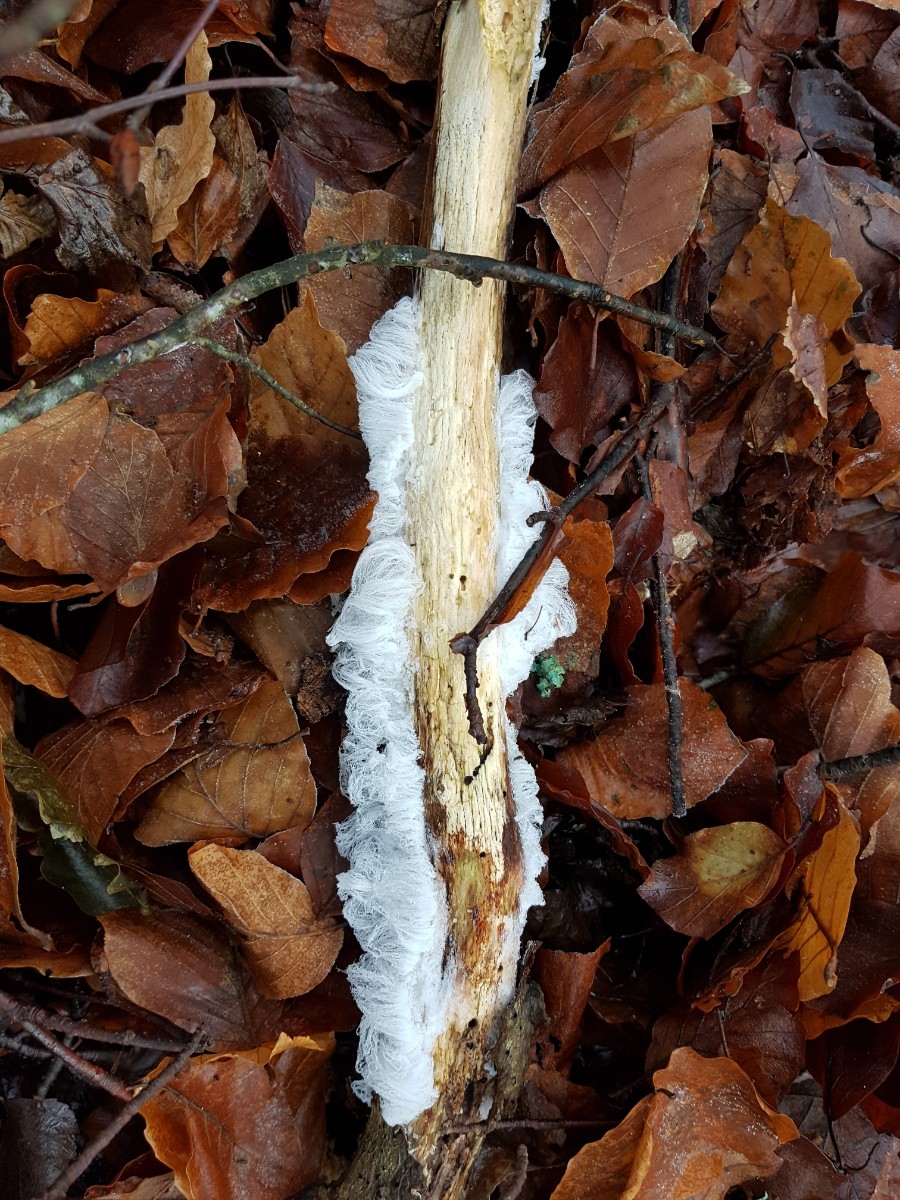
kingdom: Fungi
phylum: Basidiomycota
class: Tremellomycetes
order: Tremellales
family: Exidiaceae
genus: Exidiopsis
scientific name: Exidiopsis effusa
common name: smuk bævrehinde
